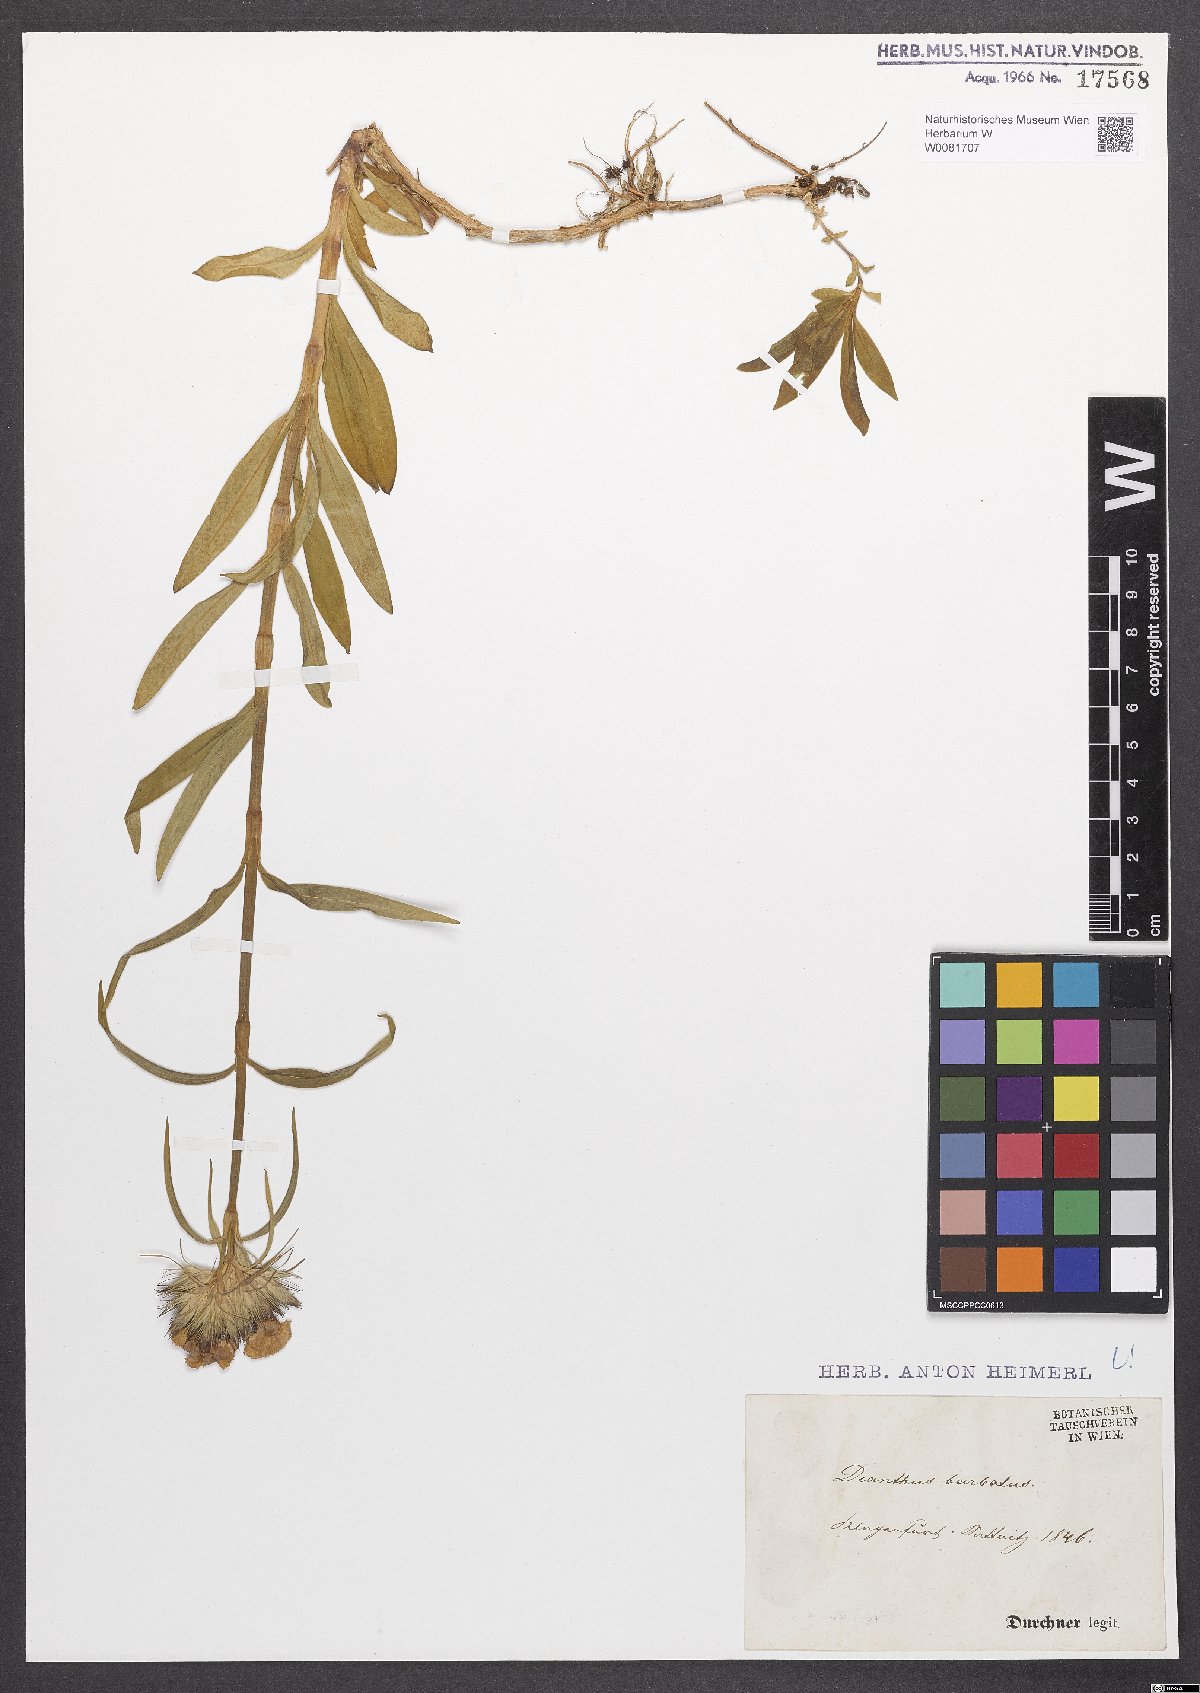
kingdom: Plantae
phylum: Tracheophyta
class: Magnoliopsida
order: Caryophyllales
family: Caryophyllaceae
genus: Dianthus
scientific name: Dianthus barbatus
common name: Sweet-william
